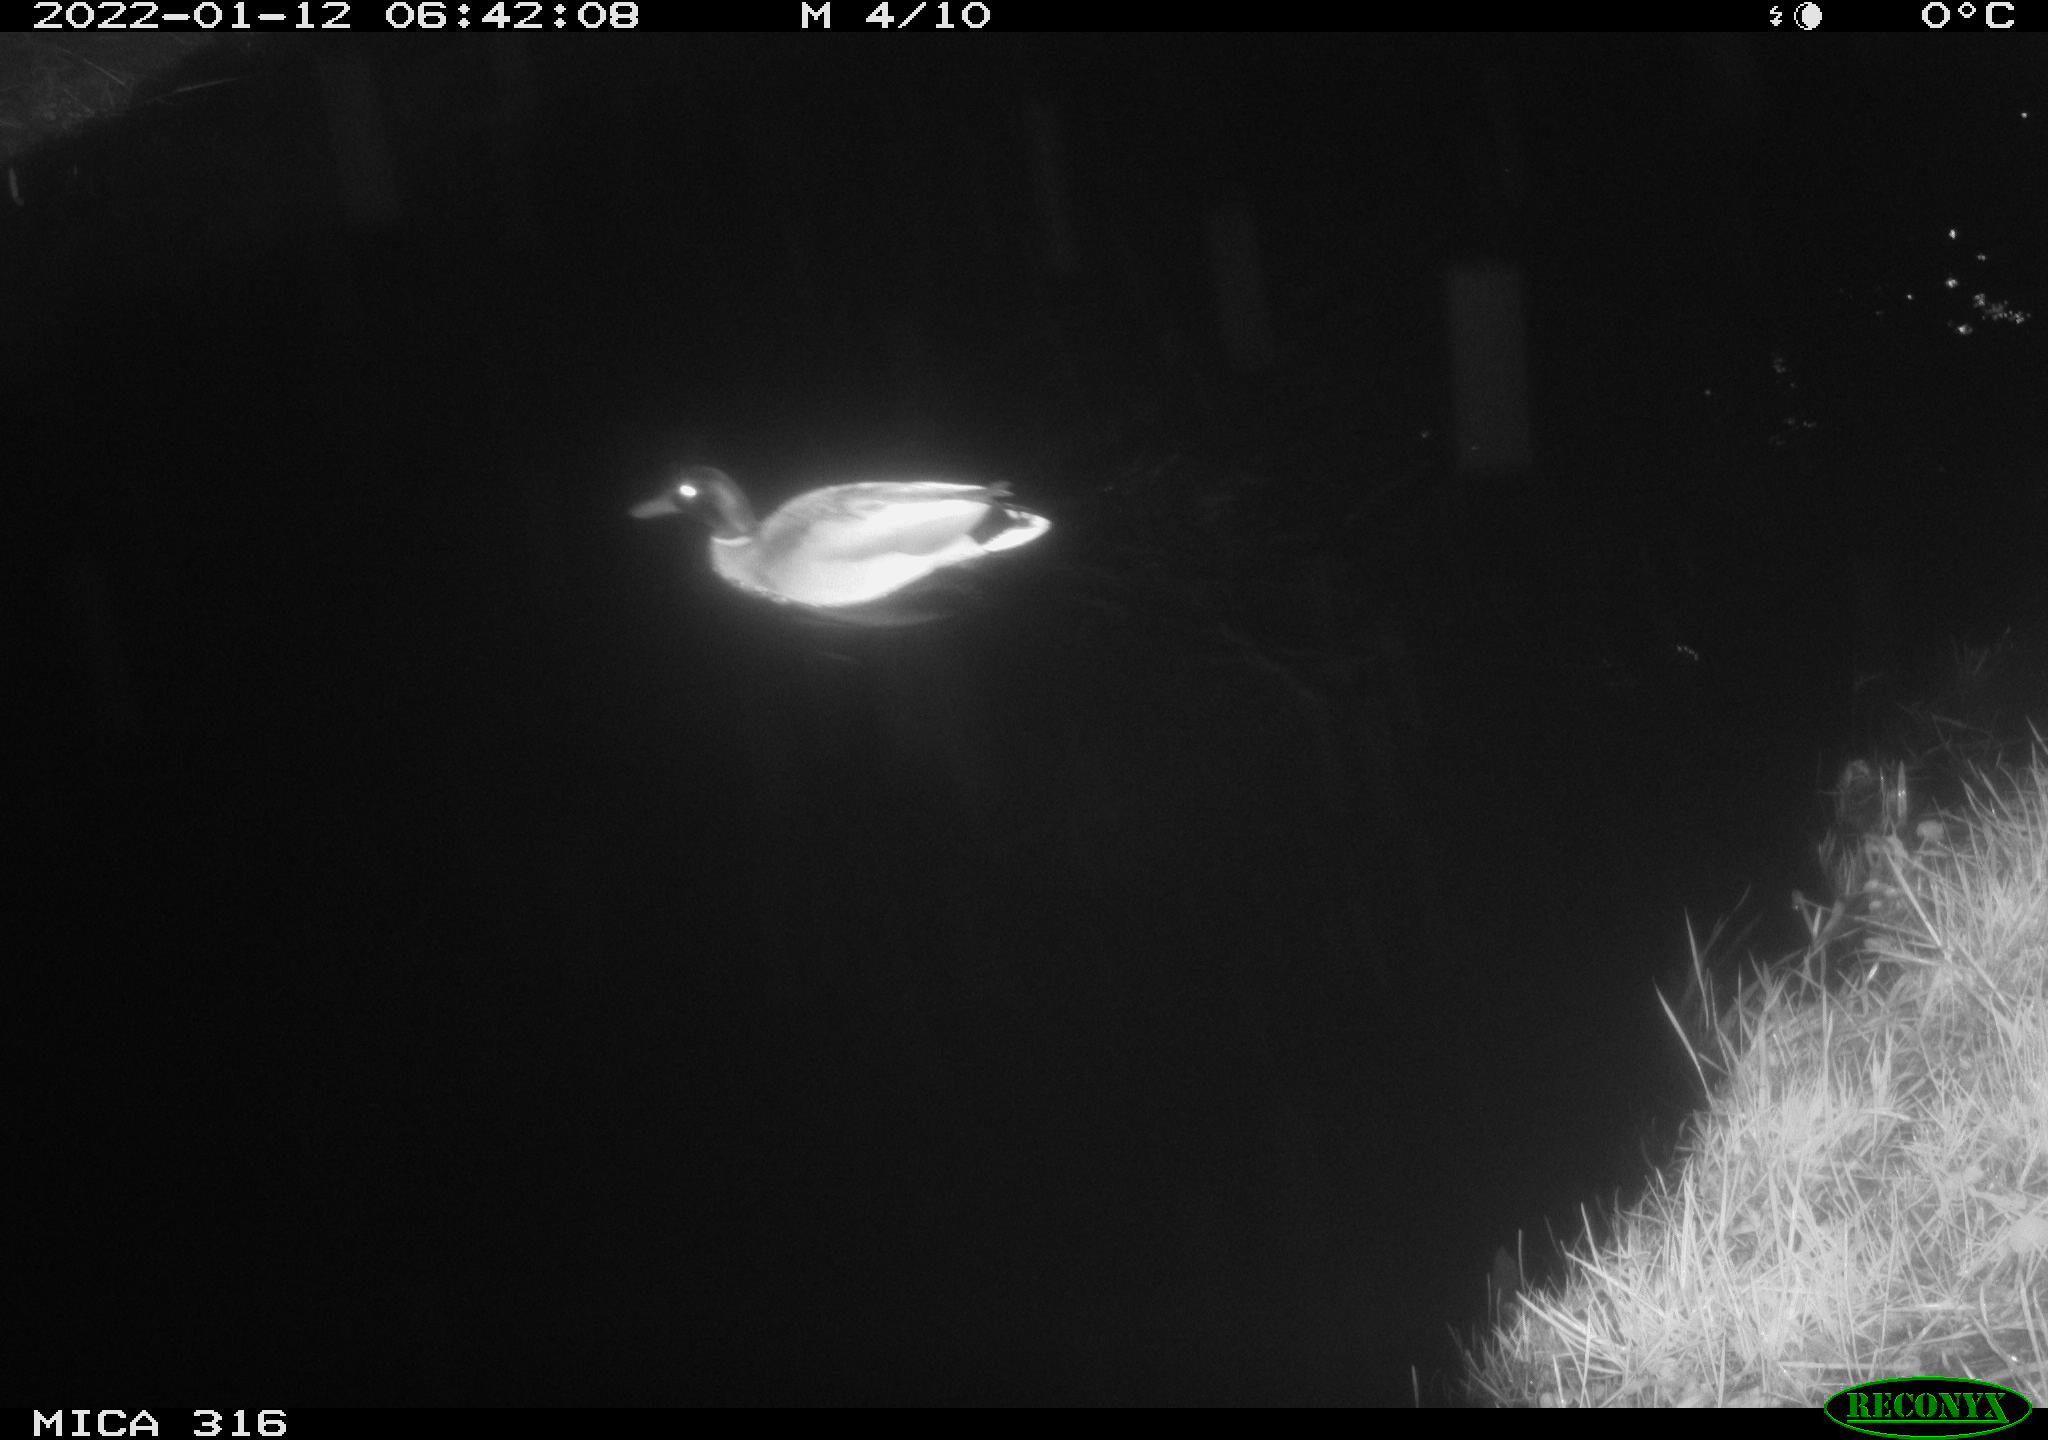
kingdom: Animalia
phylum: Chordata
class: Aves
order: Anseriformes
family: Anatidae
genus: Anas
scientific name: Anas
